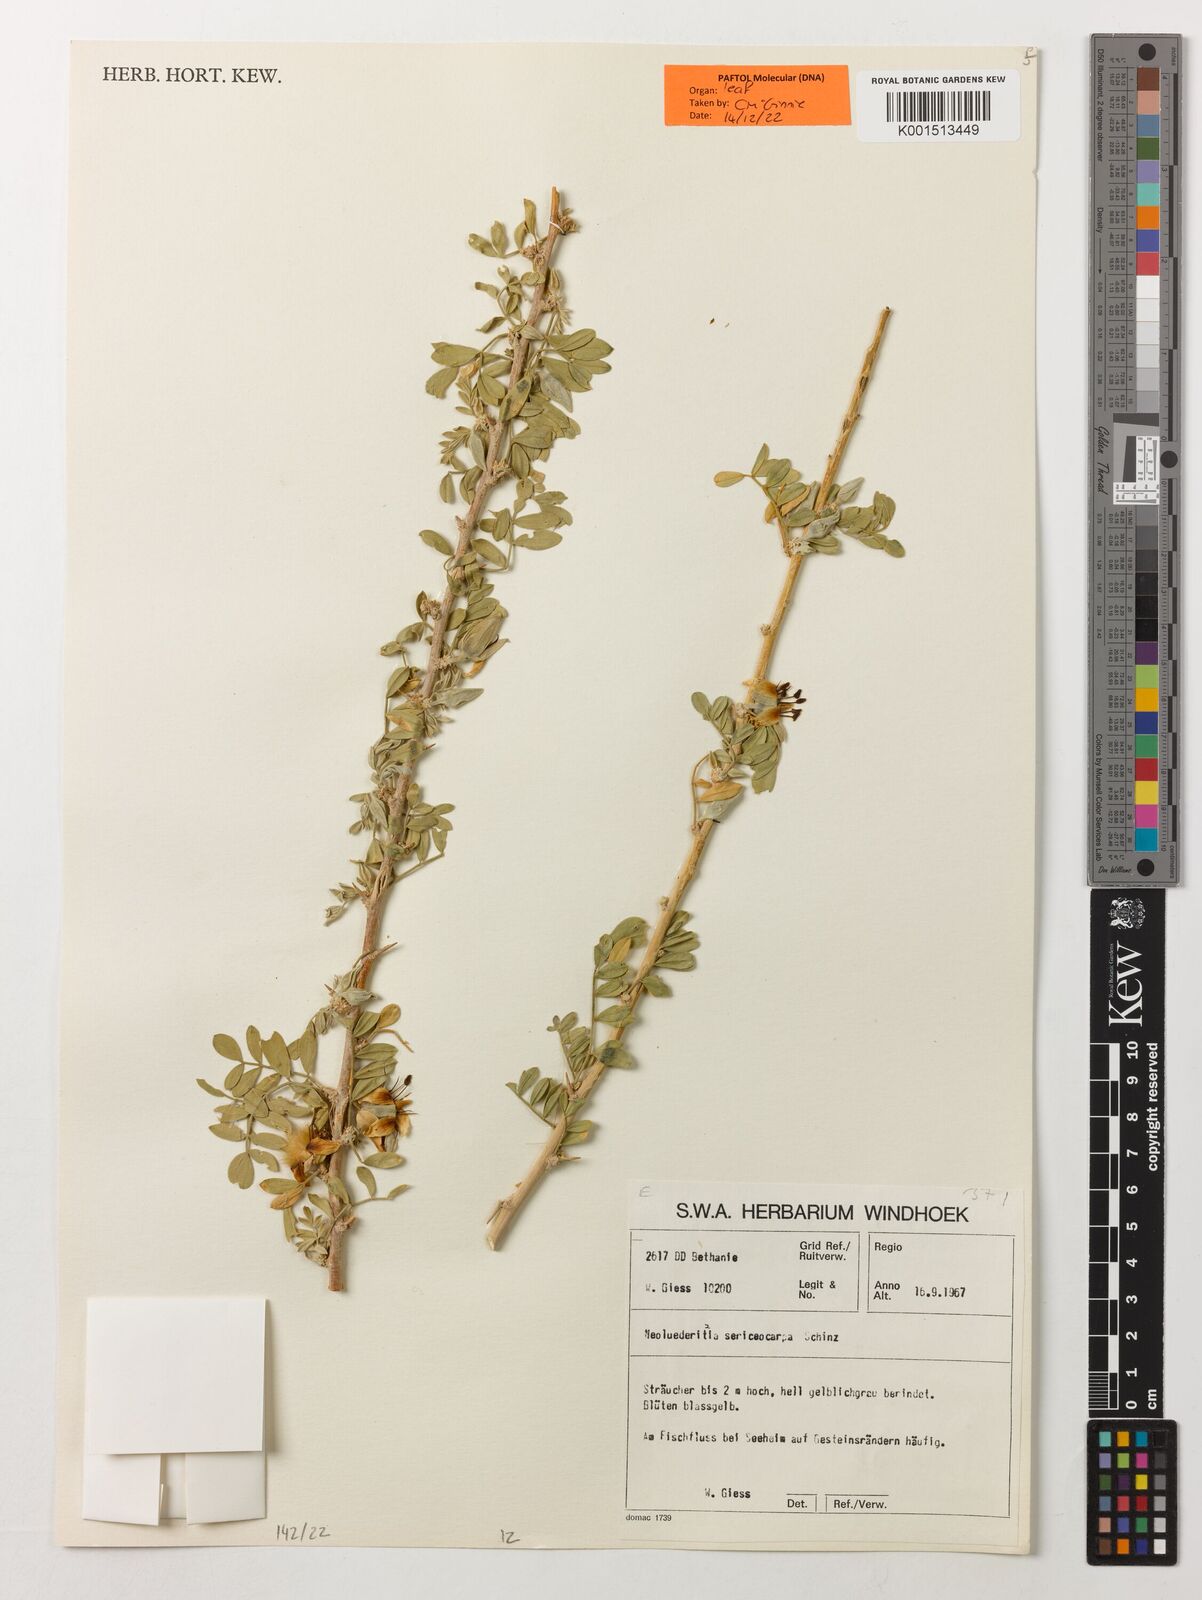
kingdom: Plantae
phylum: Tracheophyta
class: Magnoliopsida
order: Zygophyllales
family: Zygophyllaceae
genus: Neoluederitzia
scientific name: Neoluederitzia sericocarpa
